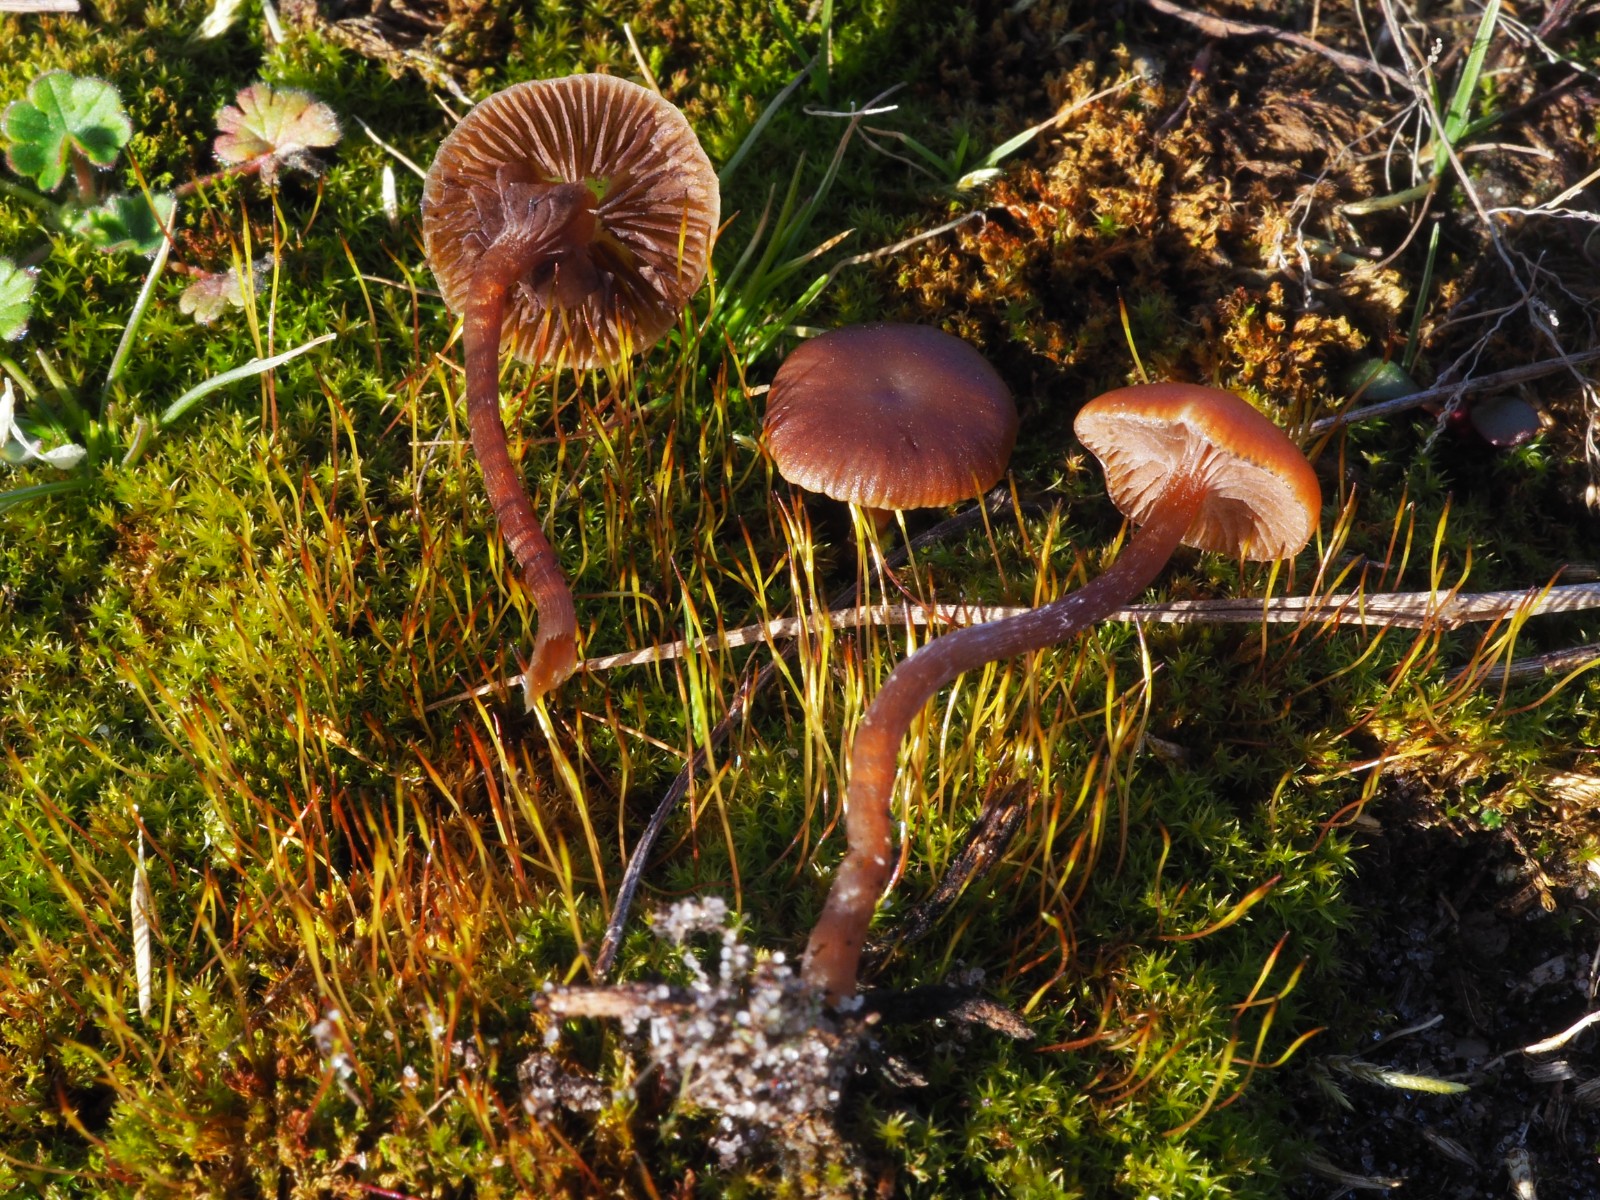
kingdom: Fungi
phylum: Basidiomycota
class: Agaricomycetes
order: Agaricales
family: Strophariaceae
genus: Deconica
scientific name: Deconica montana
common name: rødbrun stråhat
